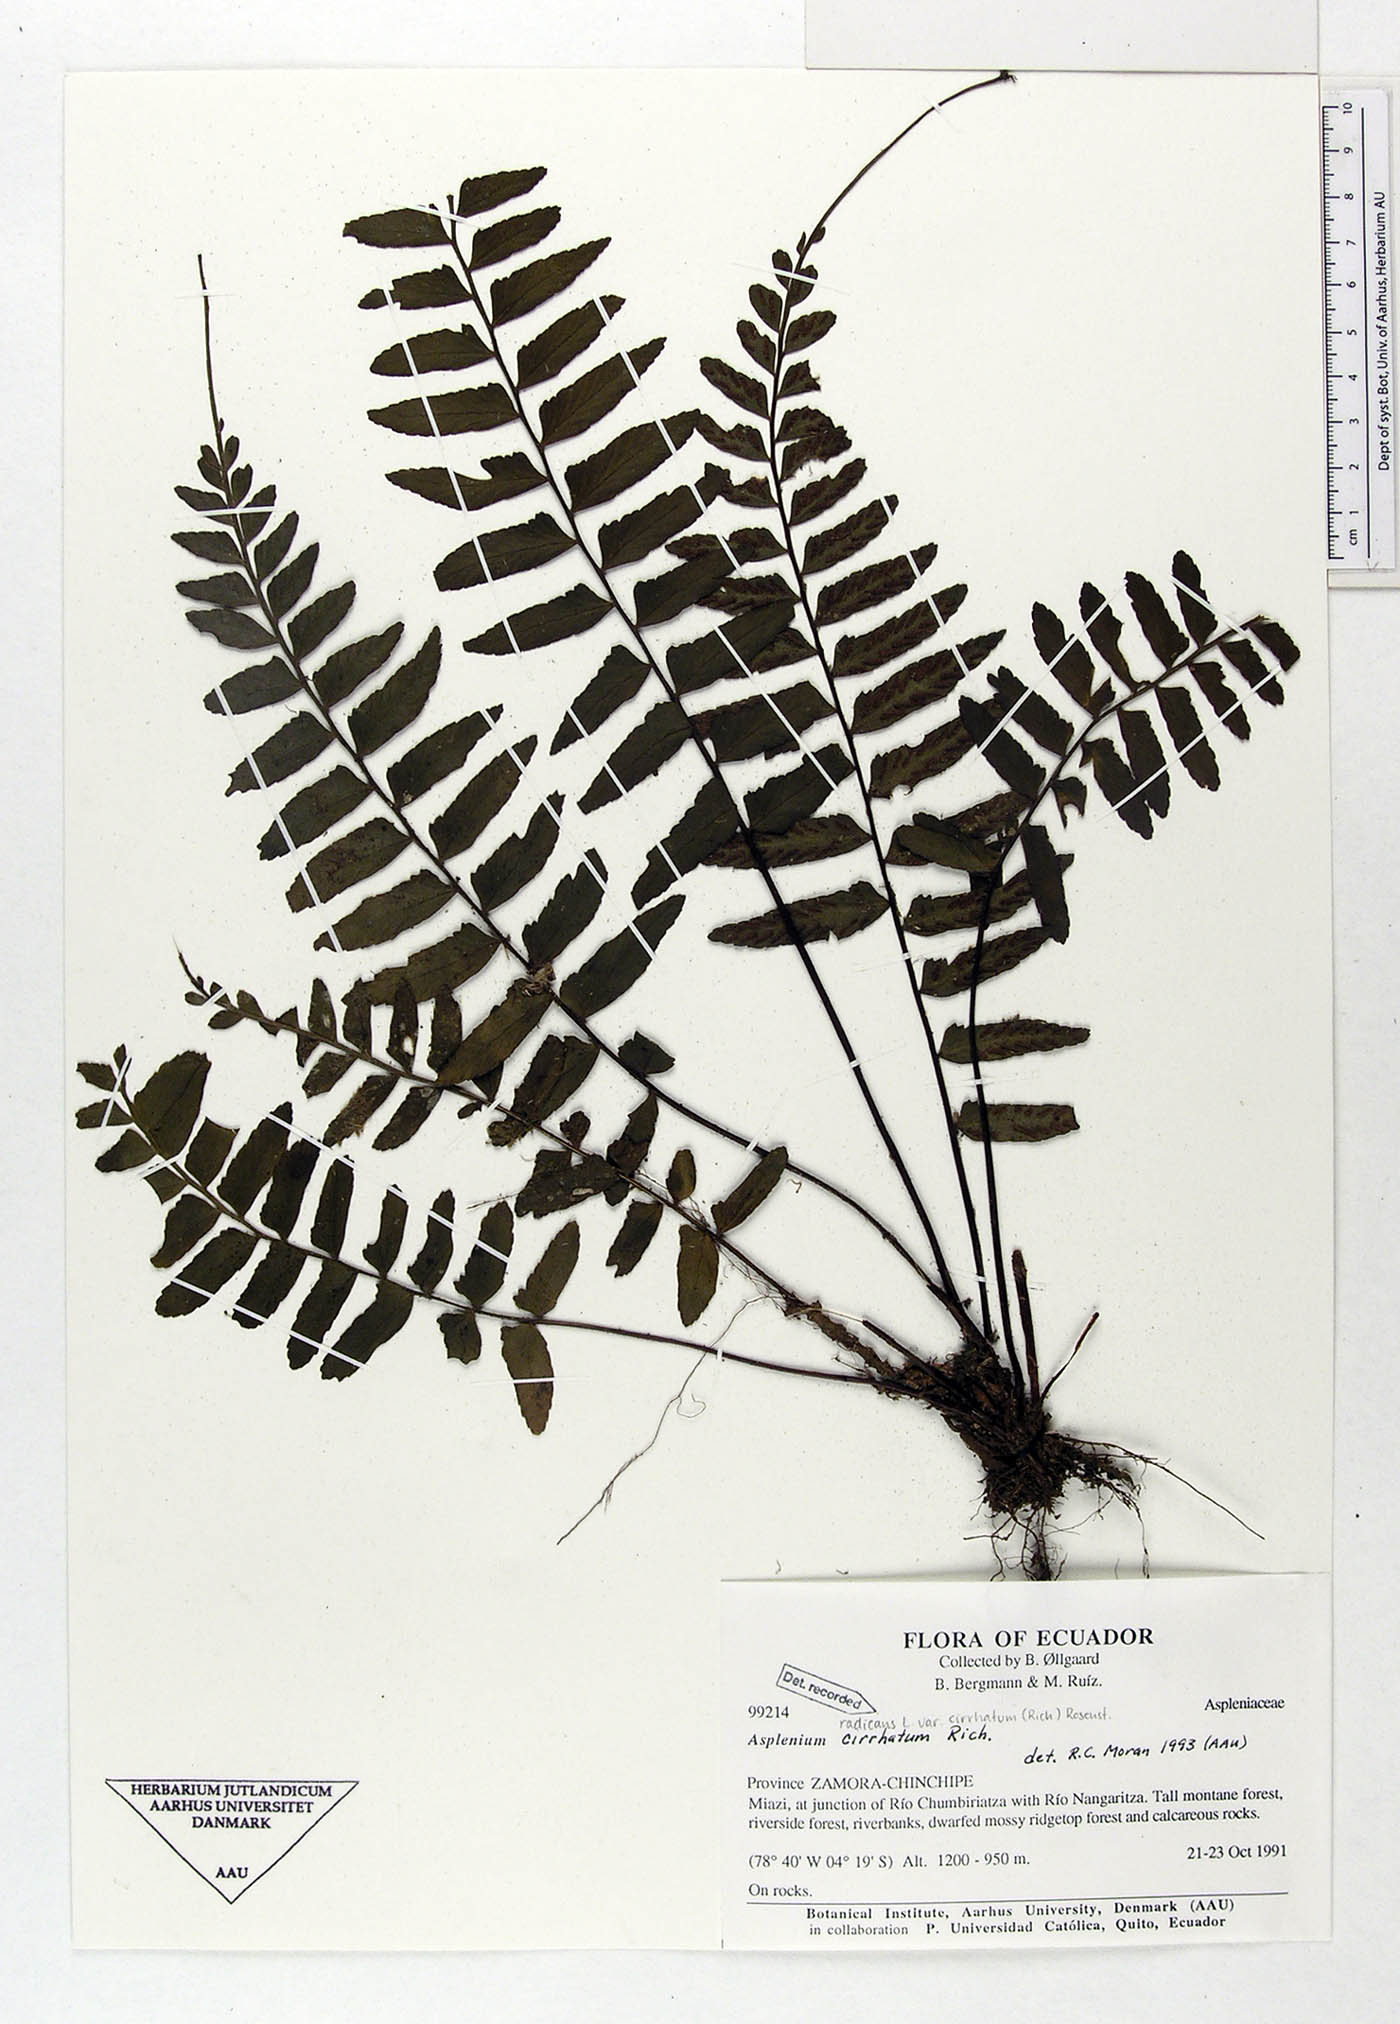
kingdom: Plantae
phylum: Tracheophyta
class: Polypodiopsida
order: Polypodiales
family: Aspleniaceae
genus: Asplenium
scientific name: Asplenium cirrhatum
